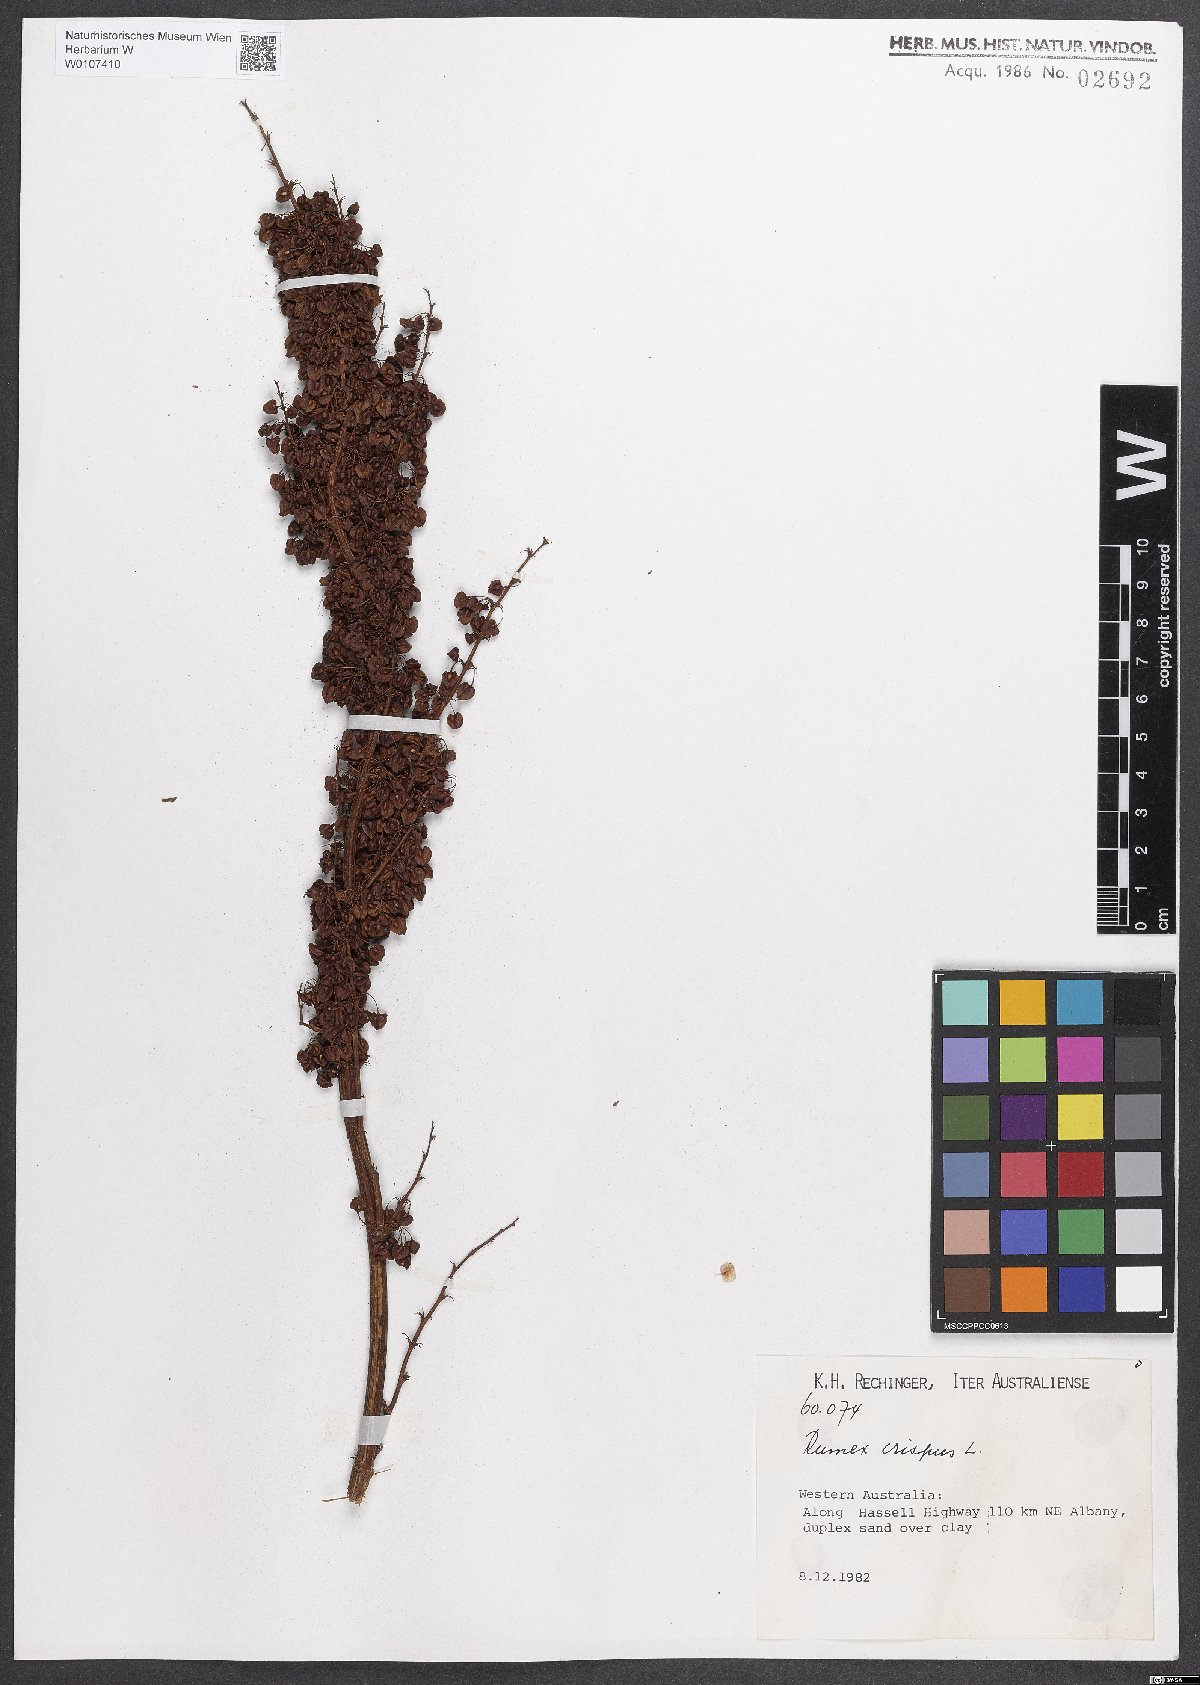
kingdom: Plantae
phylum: Tracheophyta
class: Magnoliopsida
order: Caryophyllales
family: Polygonaceae
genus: Rumex
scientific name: Rumex crispus
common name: Curled dock
